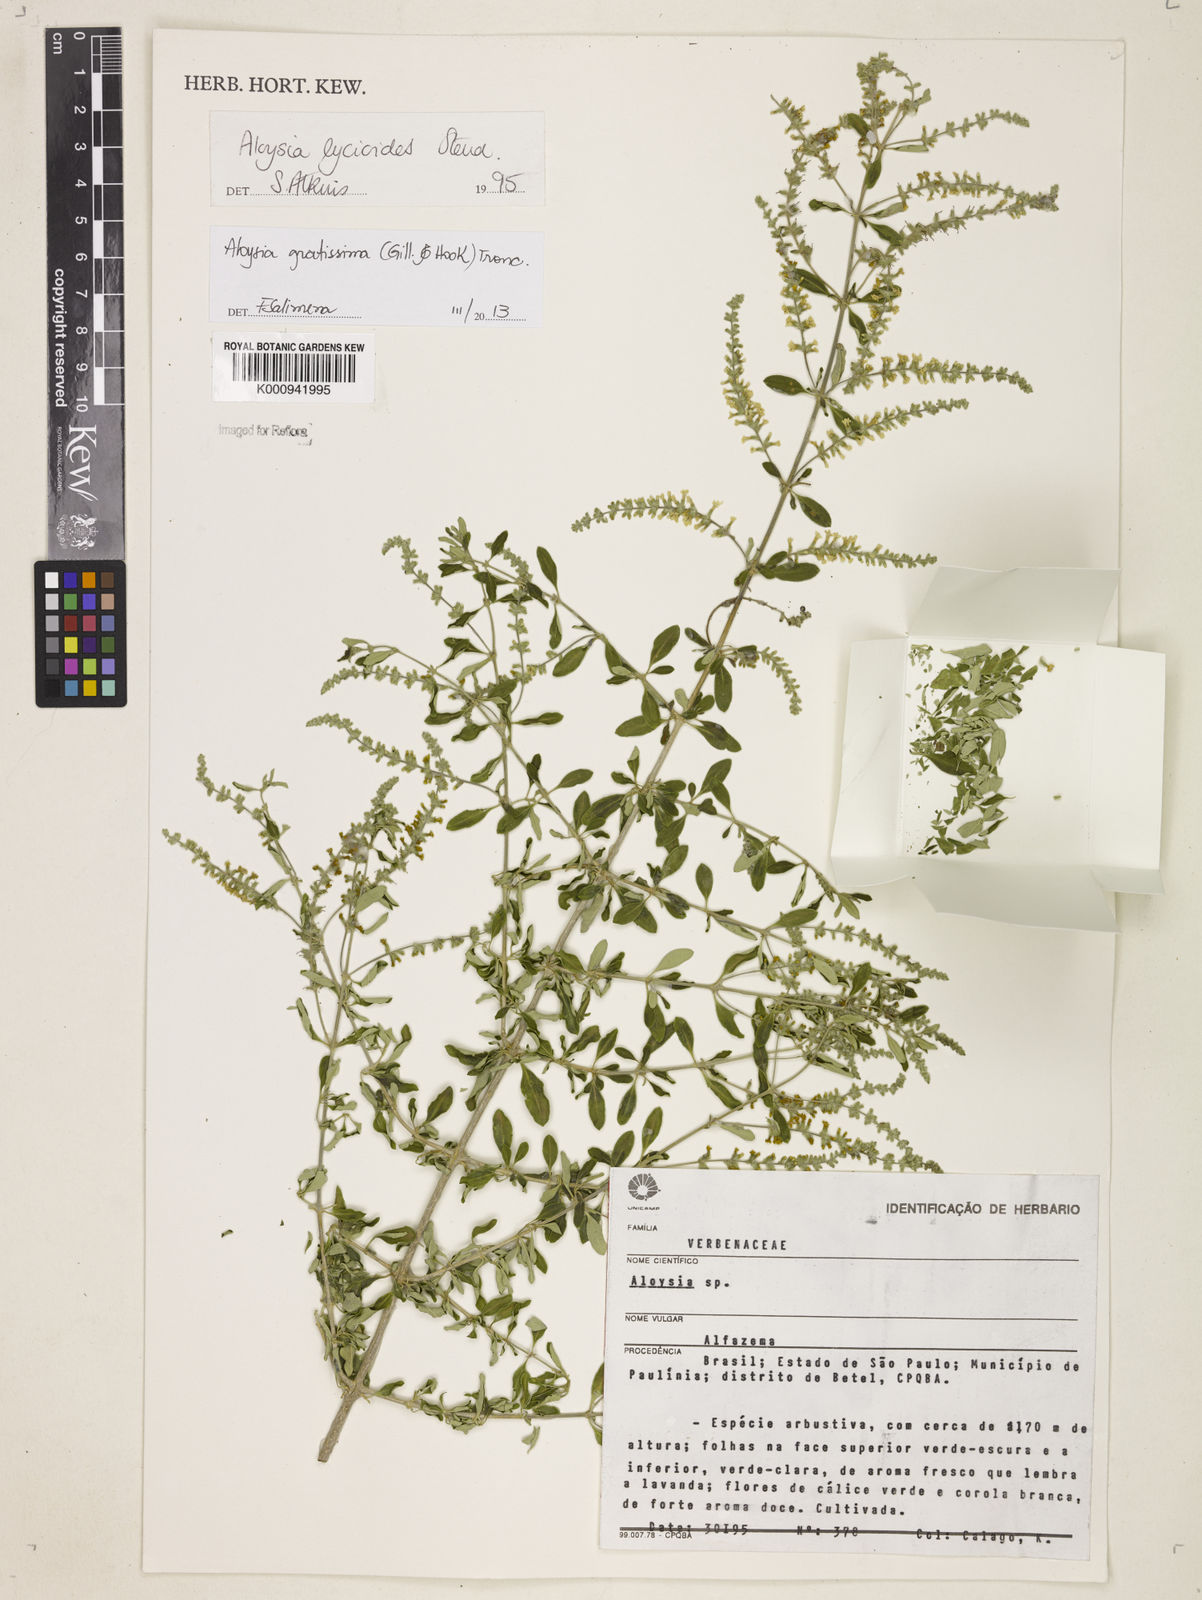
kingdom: Plantae
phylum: Tracheophyta
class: Magnoliopsida
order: Lamiales
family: Verbenaceae
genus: Aloysia
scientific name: Aloysia gratissima
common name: Common bee-brush
